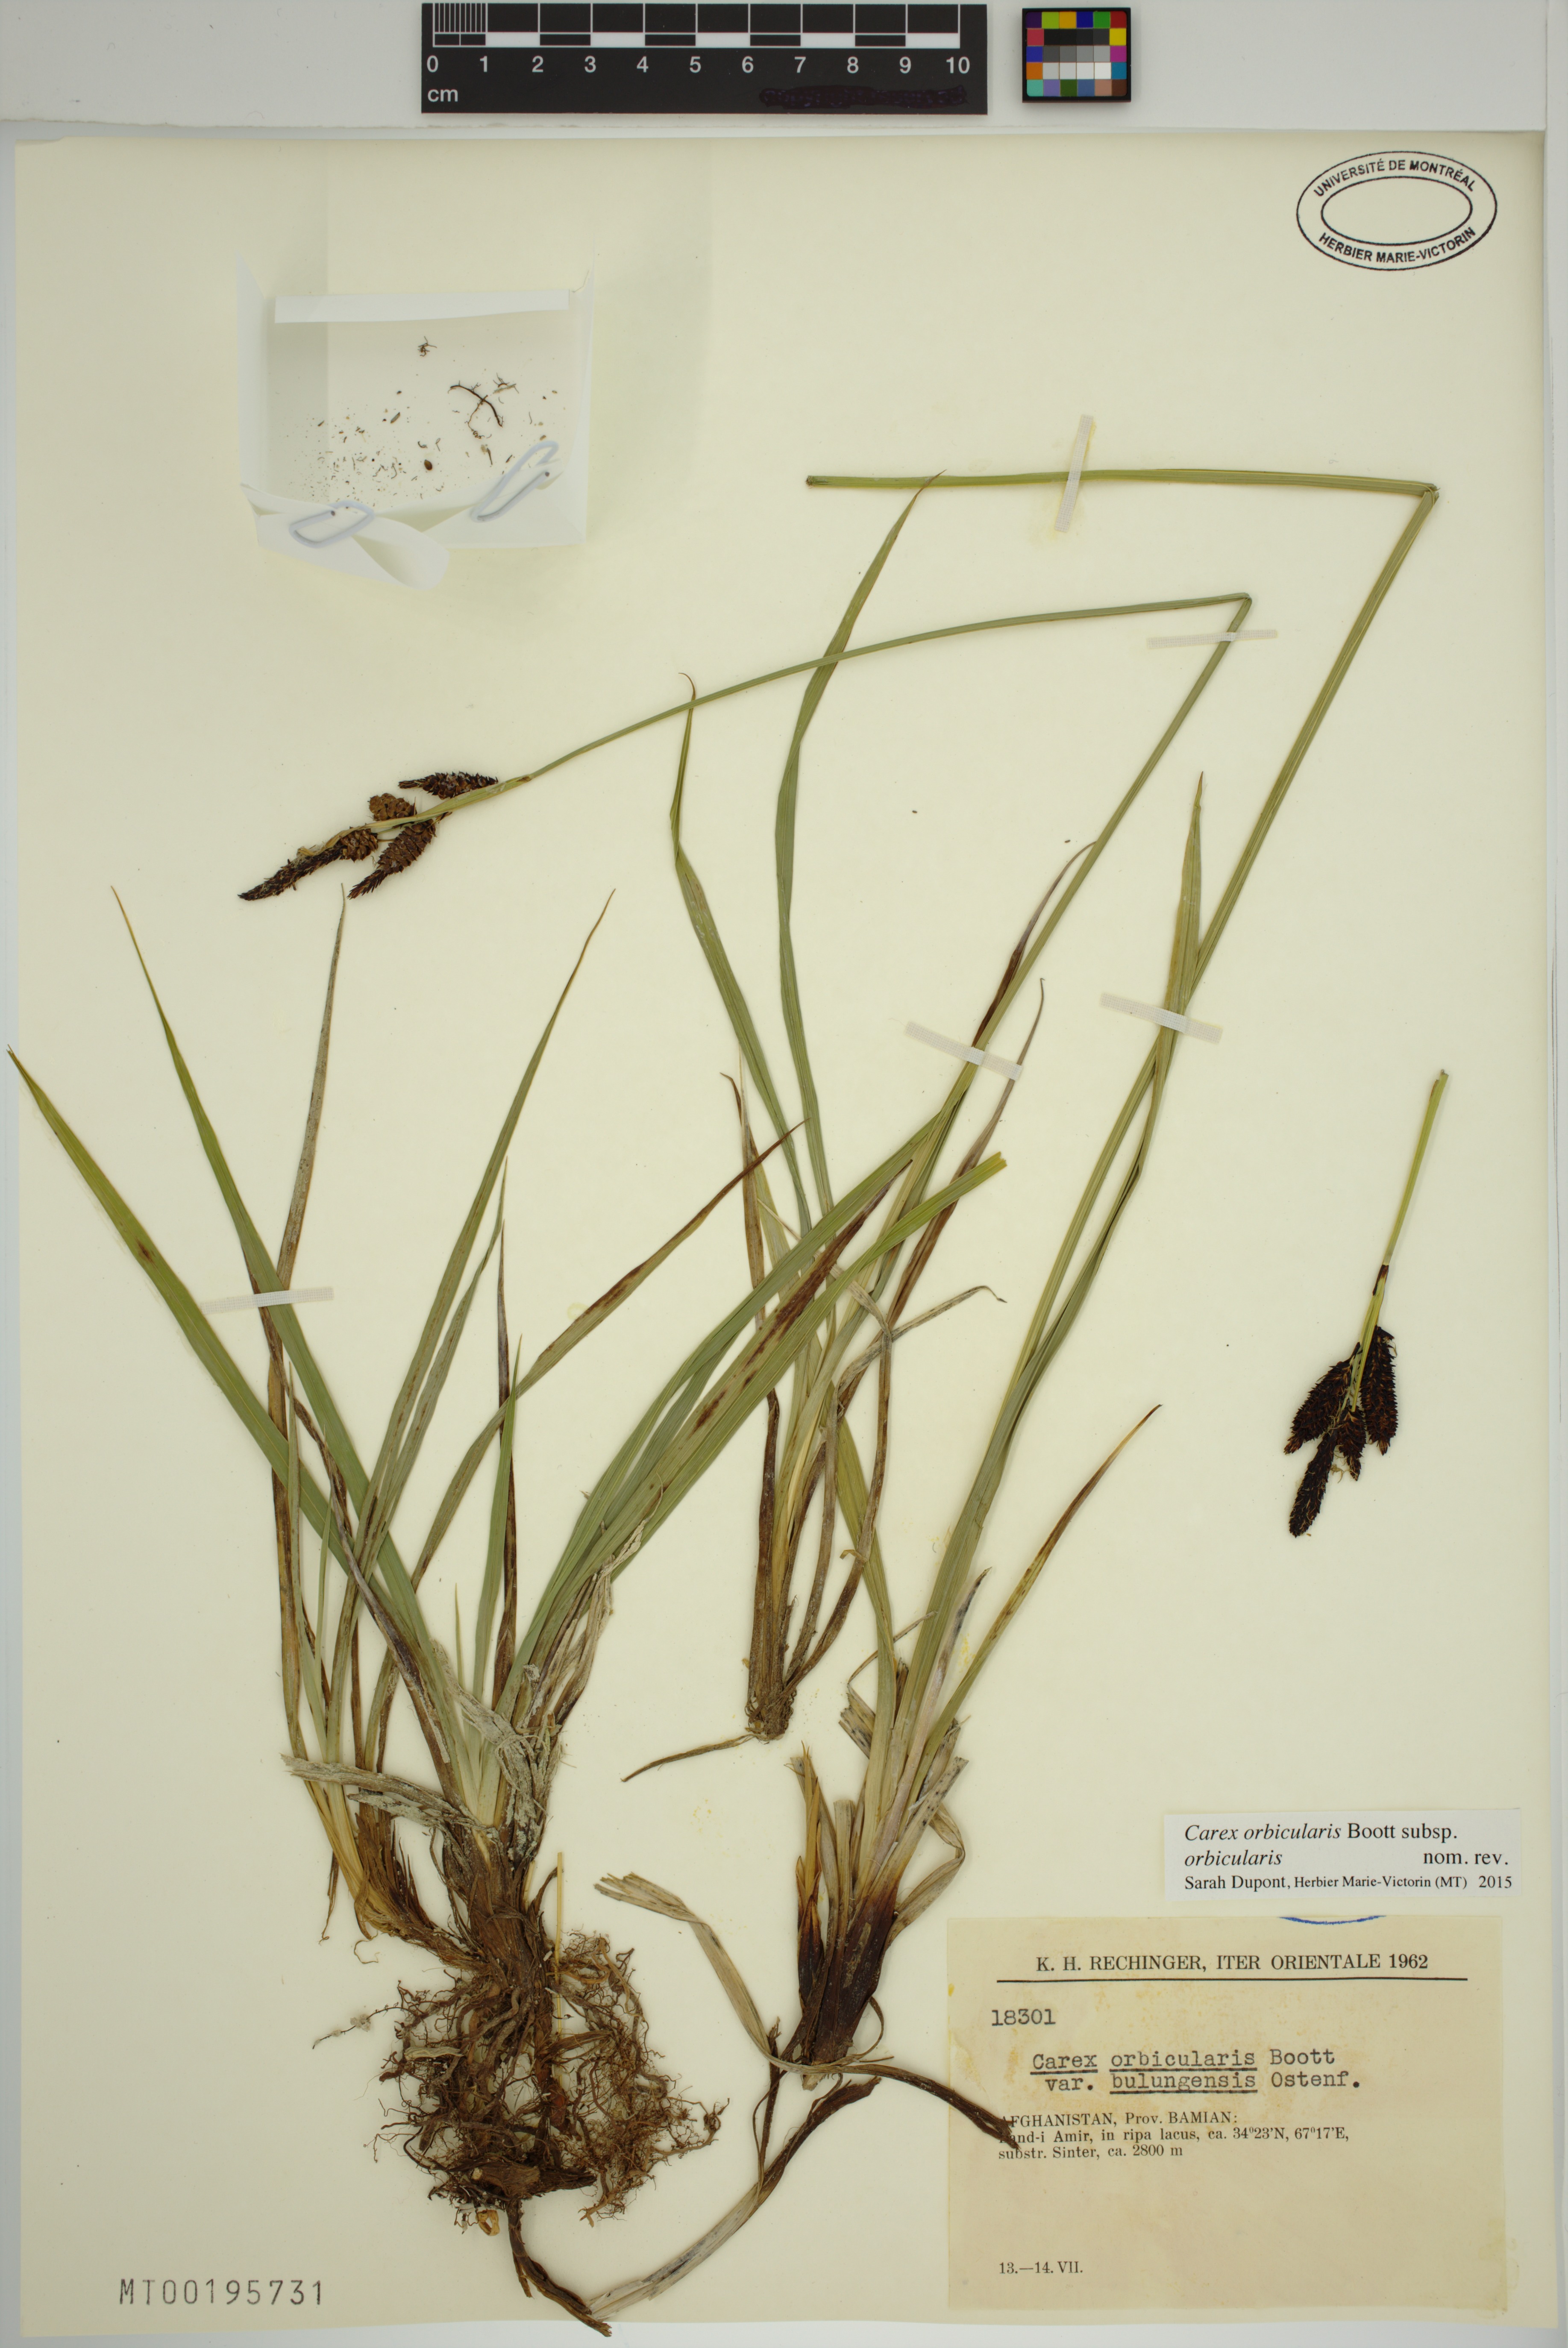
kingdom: Plantae
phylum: Tracheophyta
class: Liliopsida
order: Poales
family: Cyperaceae
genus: Carex
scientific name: Carex orbicularis
